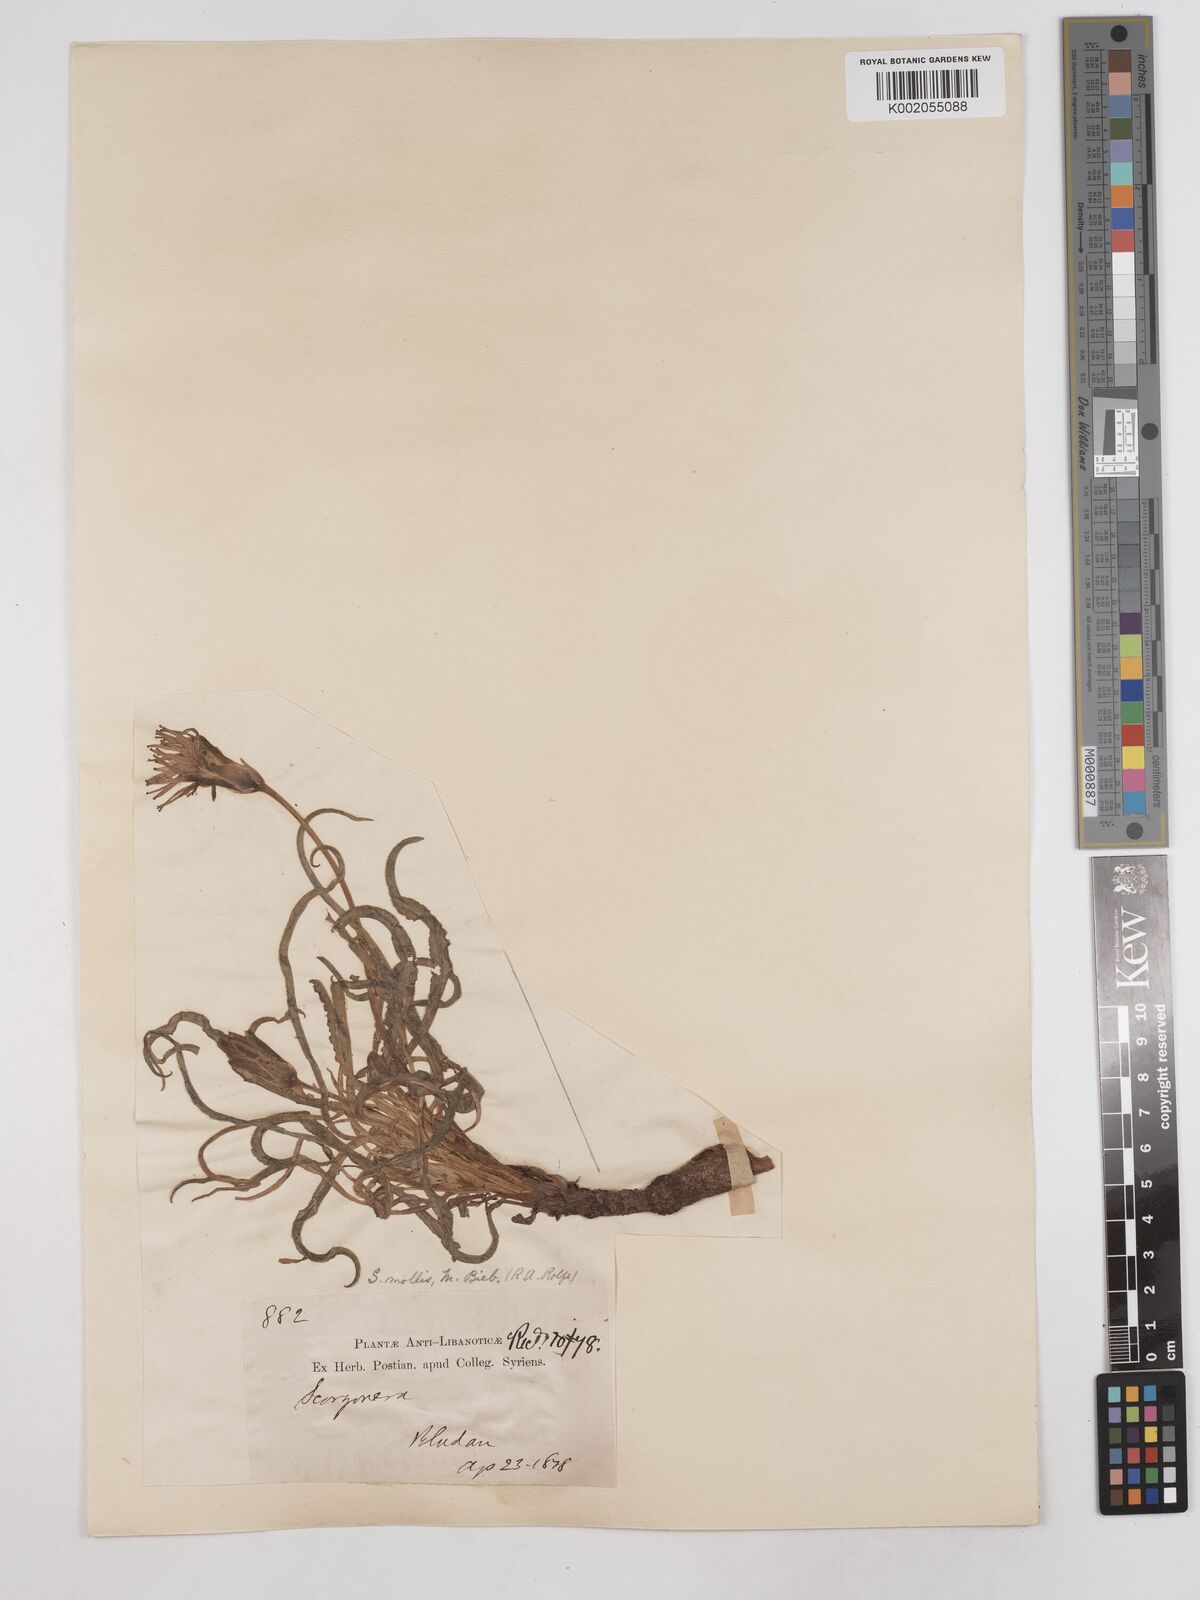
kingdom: Plantae
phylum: Tracheophyta
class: Magnoliopsida
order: Asterales
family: Asteraceae
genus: Candollea
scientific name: Candollea mollis
